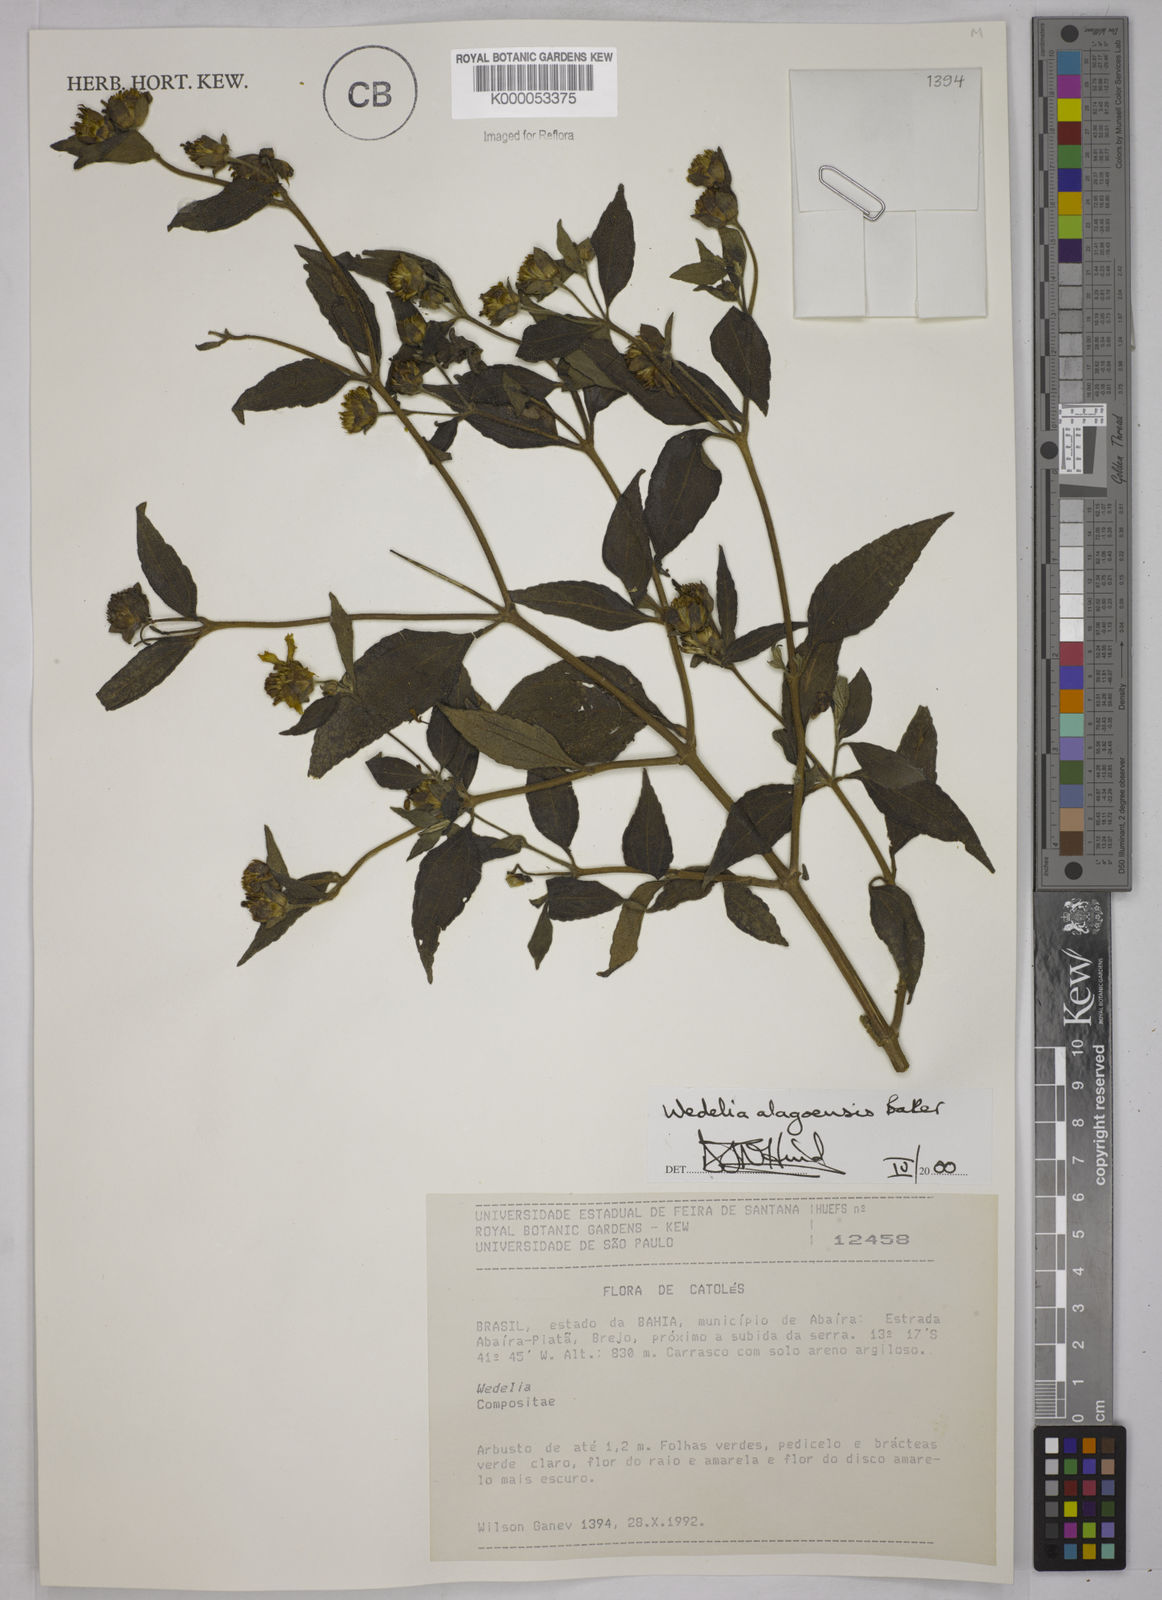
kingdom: Plantae
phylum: Tracheophyta
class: Magnoliopsida
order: Asterales
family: Asteraceae
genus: Wedelia
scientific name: Wedelia alagoensis
